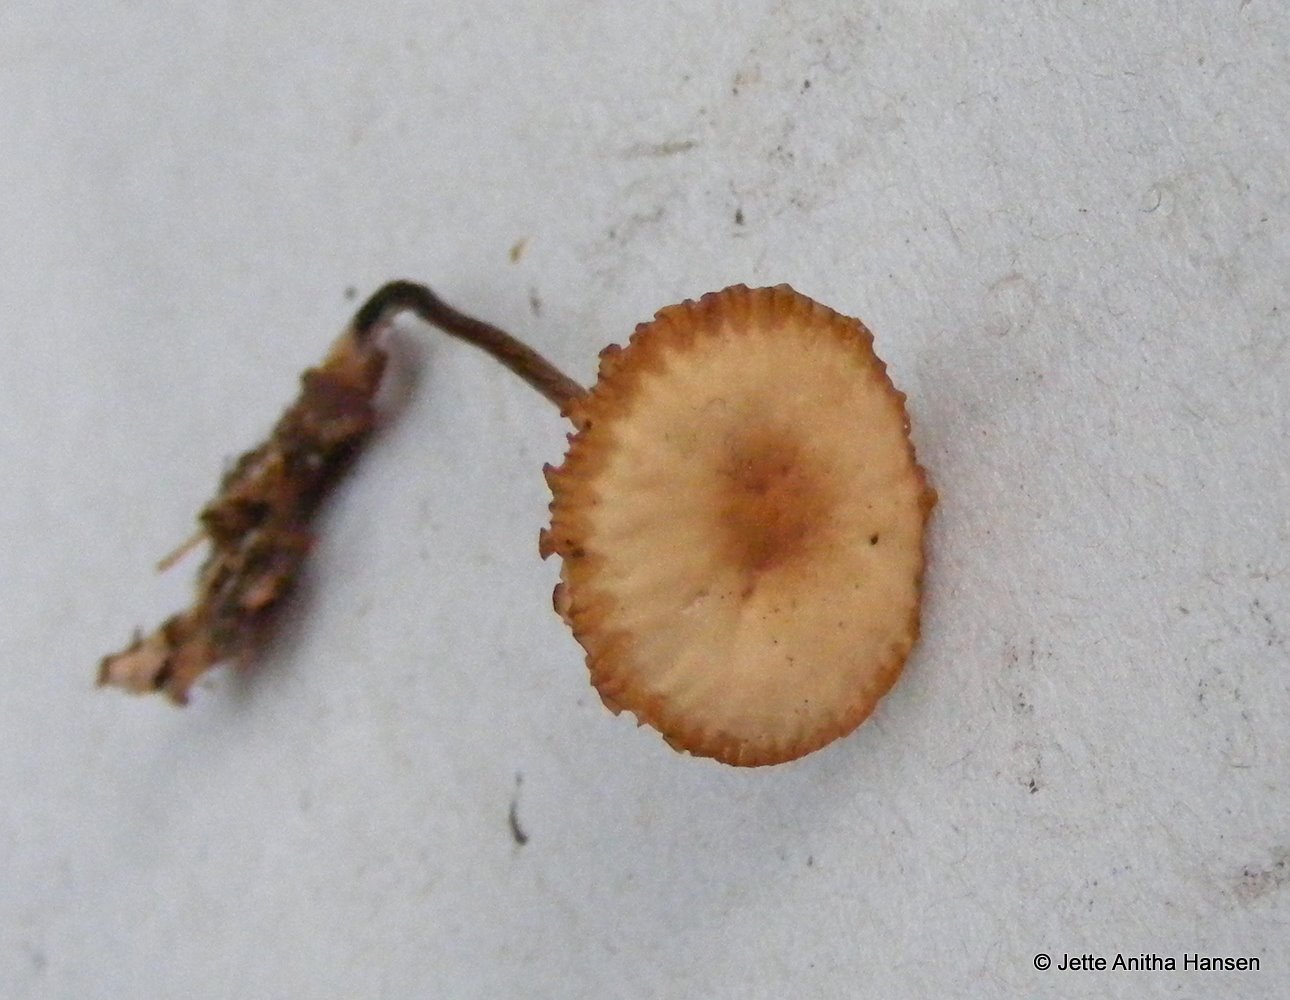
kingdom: Fungi
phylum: Basidiomycota
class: Agaricomycetes
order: Agaricales
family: Marasmiaceae
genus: Marasmius
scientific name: Marasmius torquescens
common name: filtfodet bruskhat
